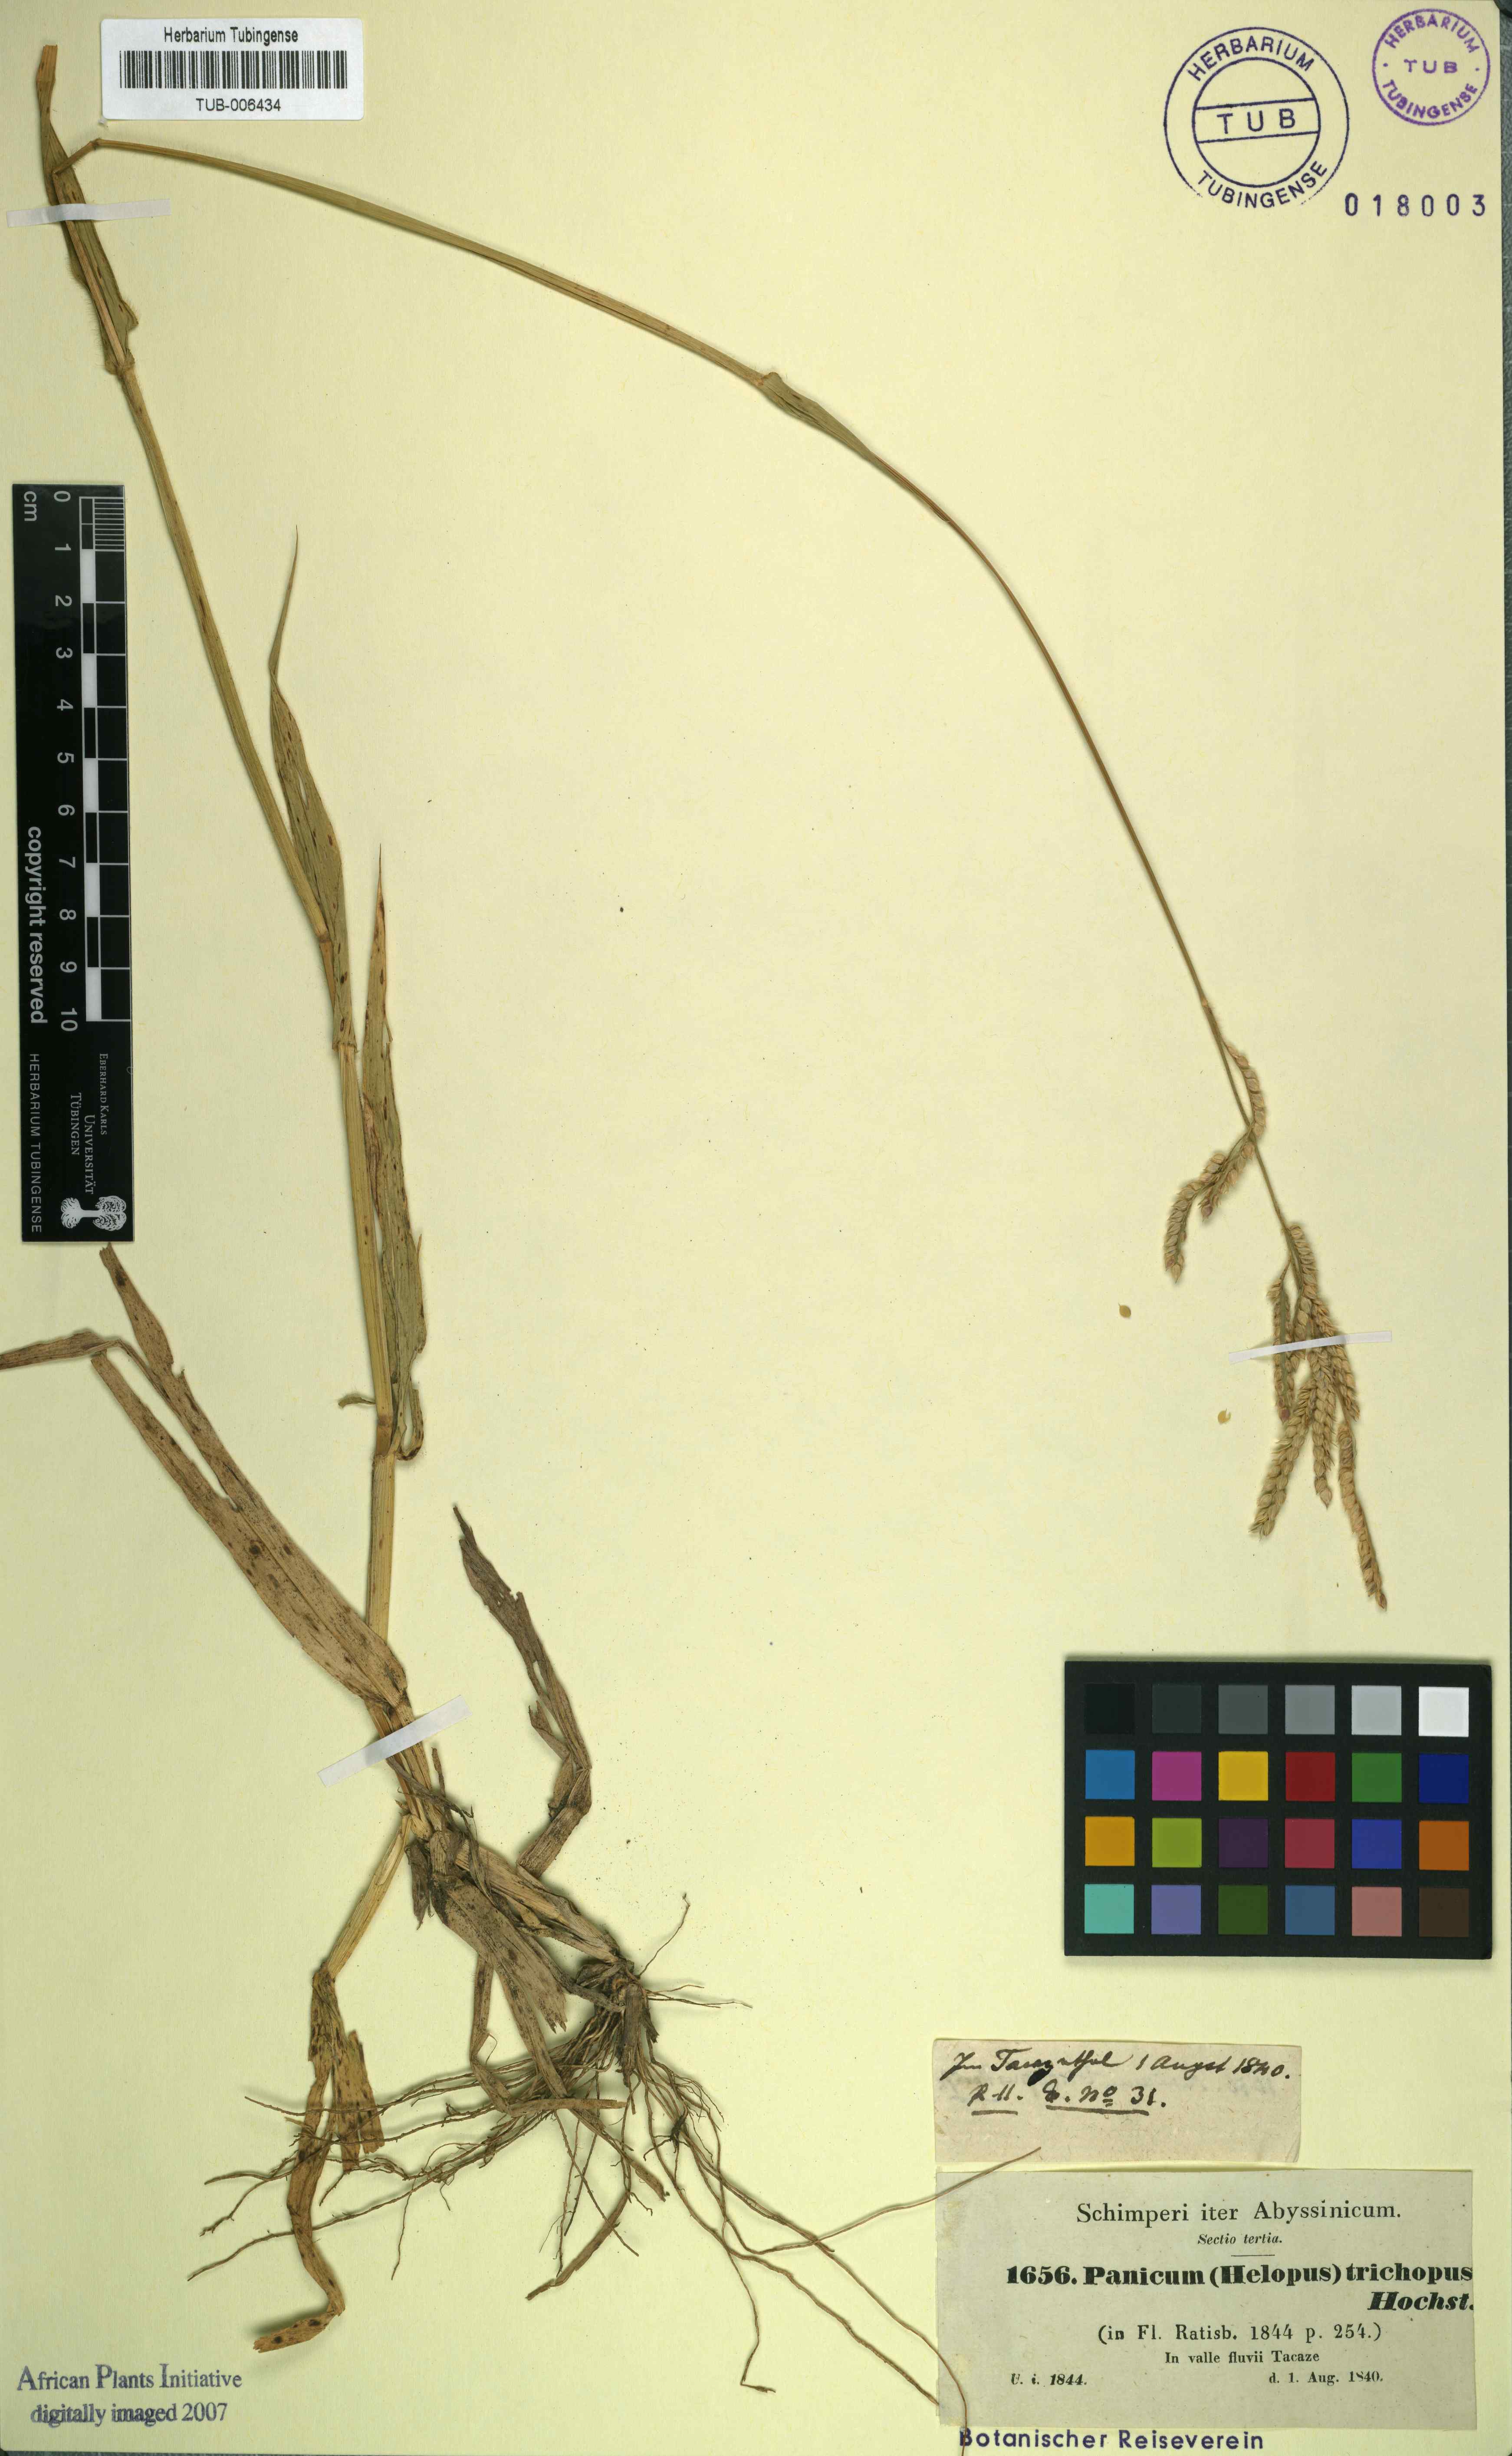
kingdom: Plantae
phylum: Tracheophyta
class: Liliopsida
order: Poales
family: Poaceae
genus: Urochloa
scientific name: Urochloa panicoides
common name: Sharp-flowered signal-grass
